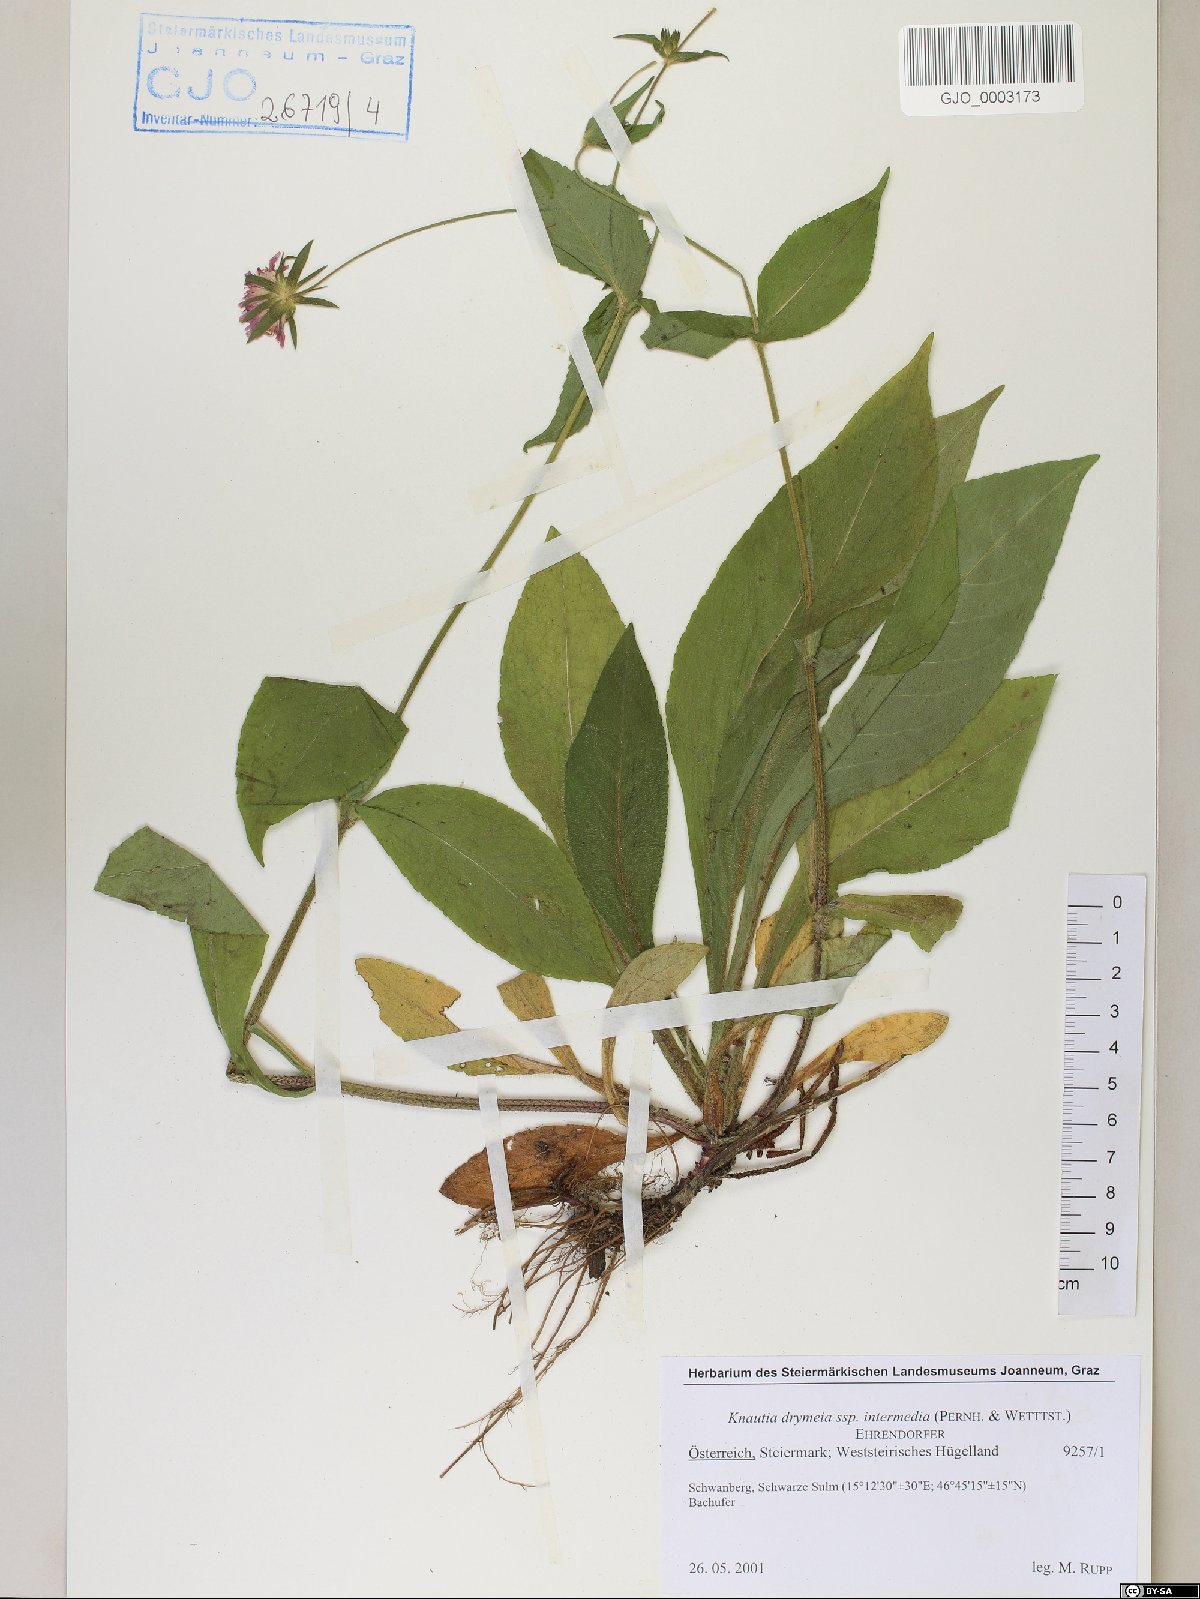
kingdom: Plantae
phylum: Tracheophyta
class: Magnoliopsida
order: Dipsacales
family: Caprifoliaceae
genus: Knautia
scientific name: Knautia drymeia
